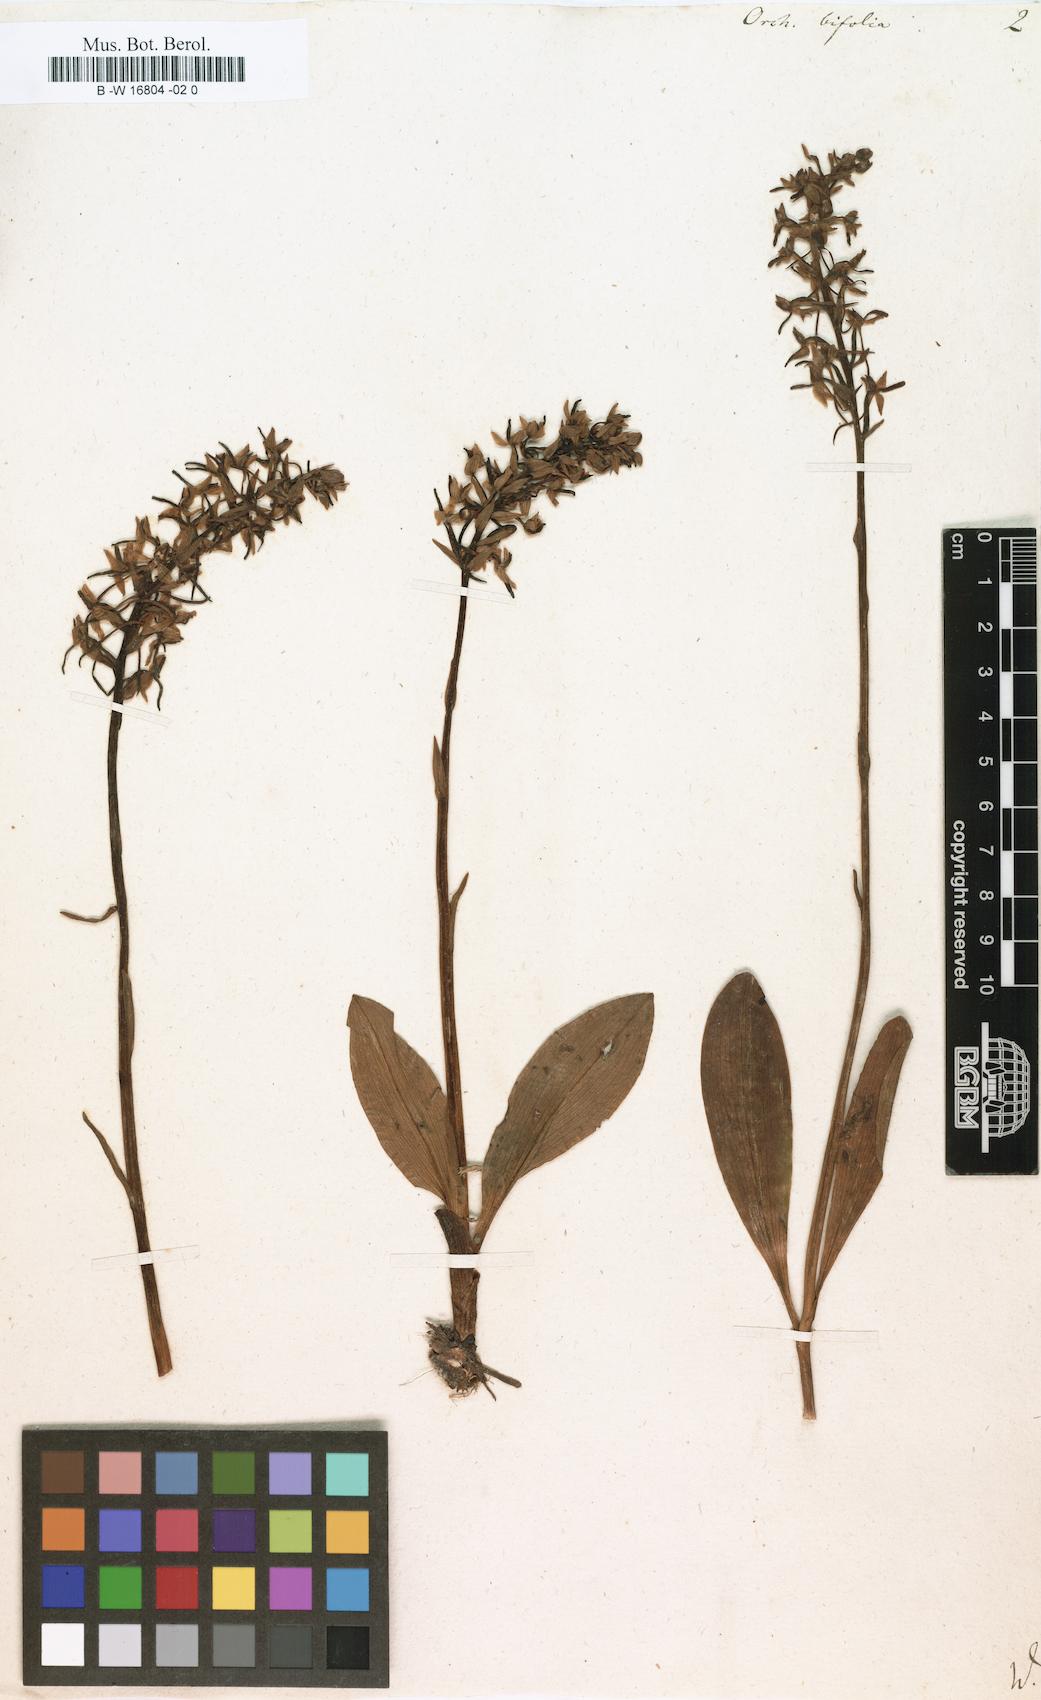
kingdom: Plantae
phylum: Tracheophyta
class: Liliopsida
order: Asparagales
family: Orchidaceae
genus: Platanthera
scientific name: Platanthera bifolia
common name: Lesser butterfly-orchid
